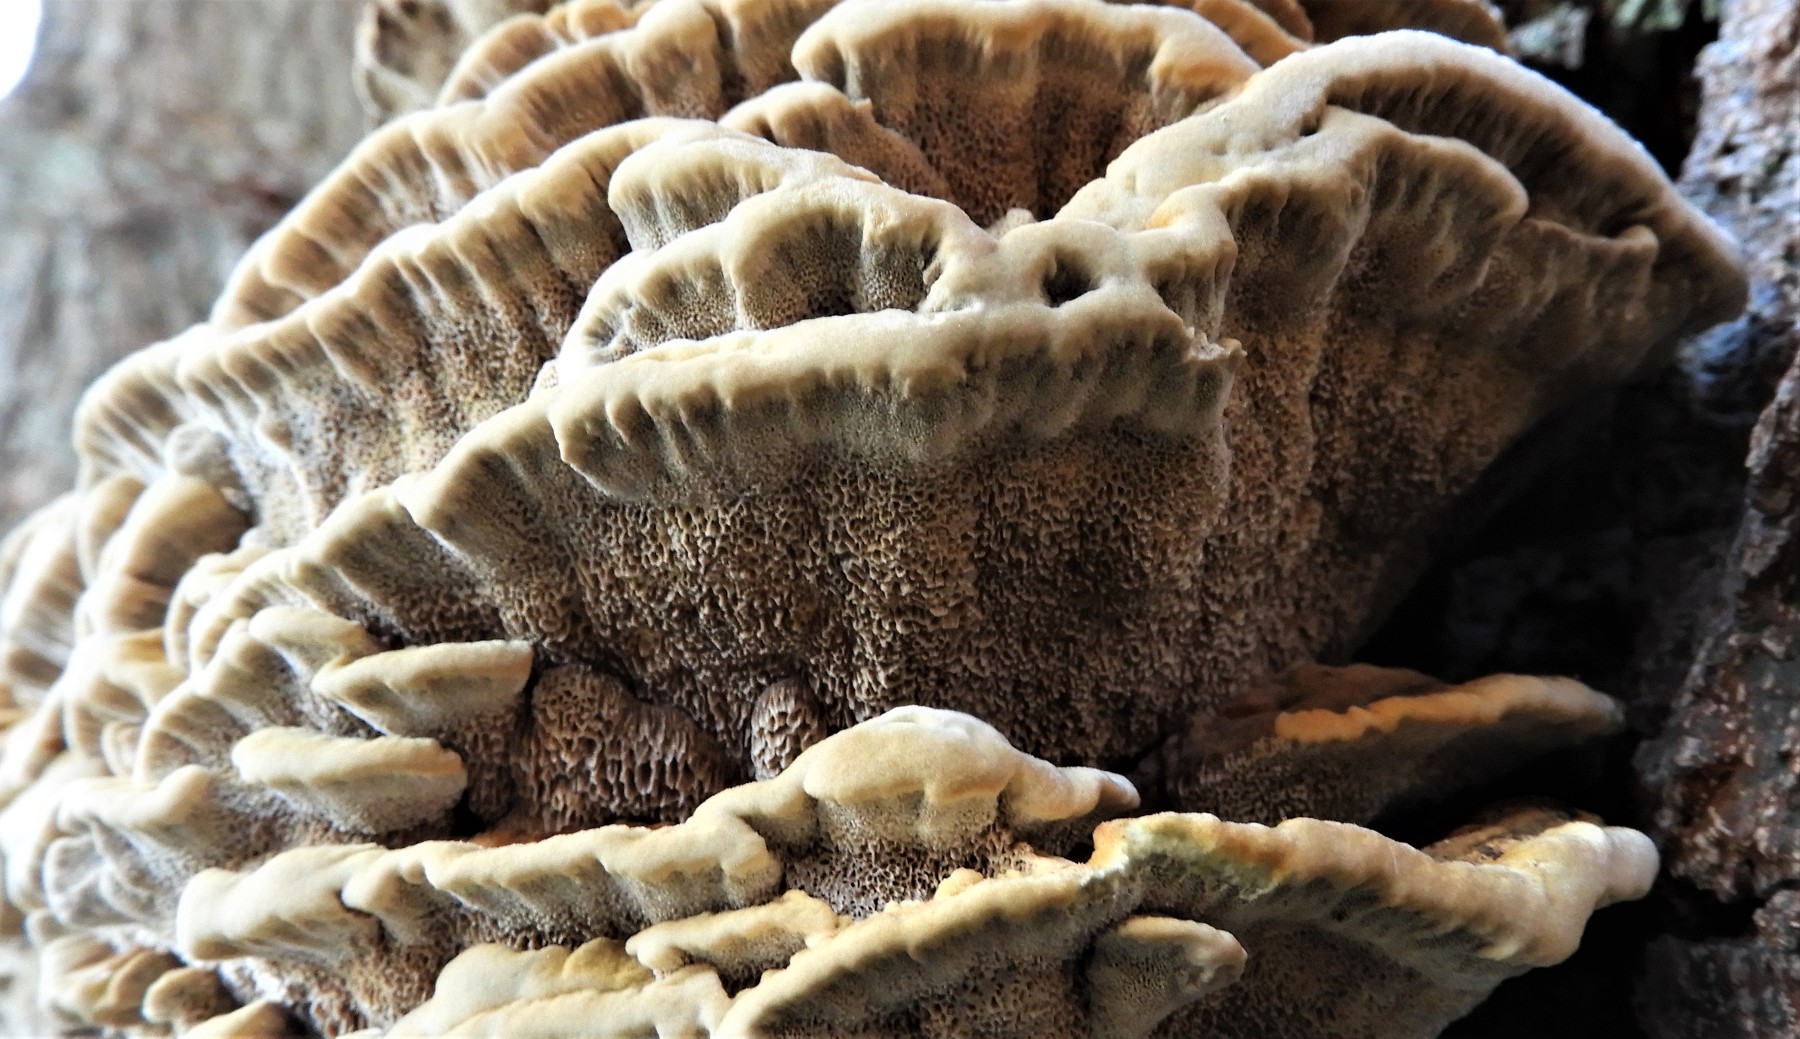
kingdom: Fungi
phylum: Basidiomycota
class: Agaricomycetes
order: Hymenochaetales
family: Hymenochaetaceae
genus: Xanthoporia
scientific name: Xanthoporia radiata
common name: elle-spejlporesvamp
